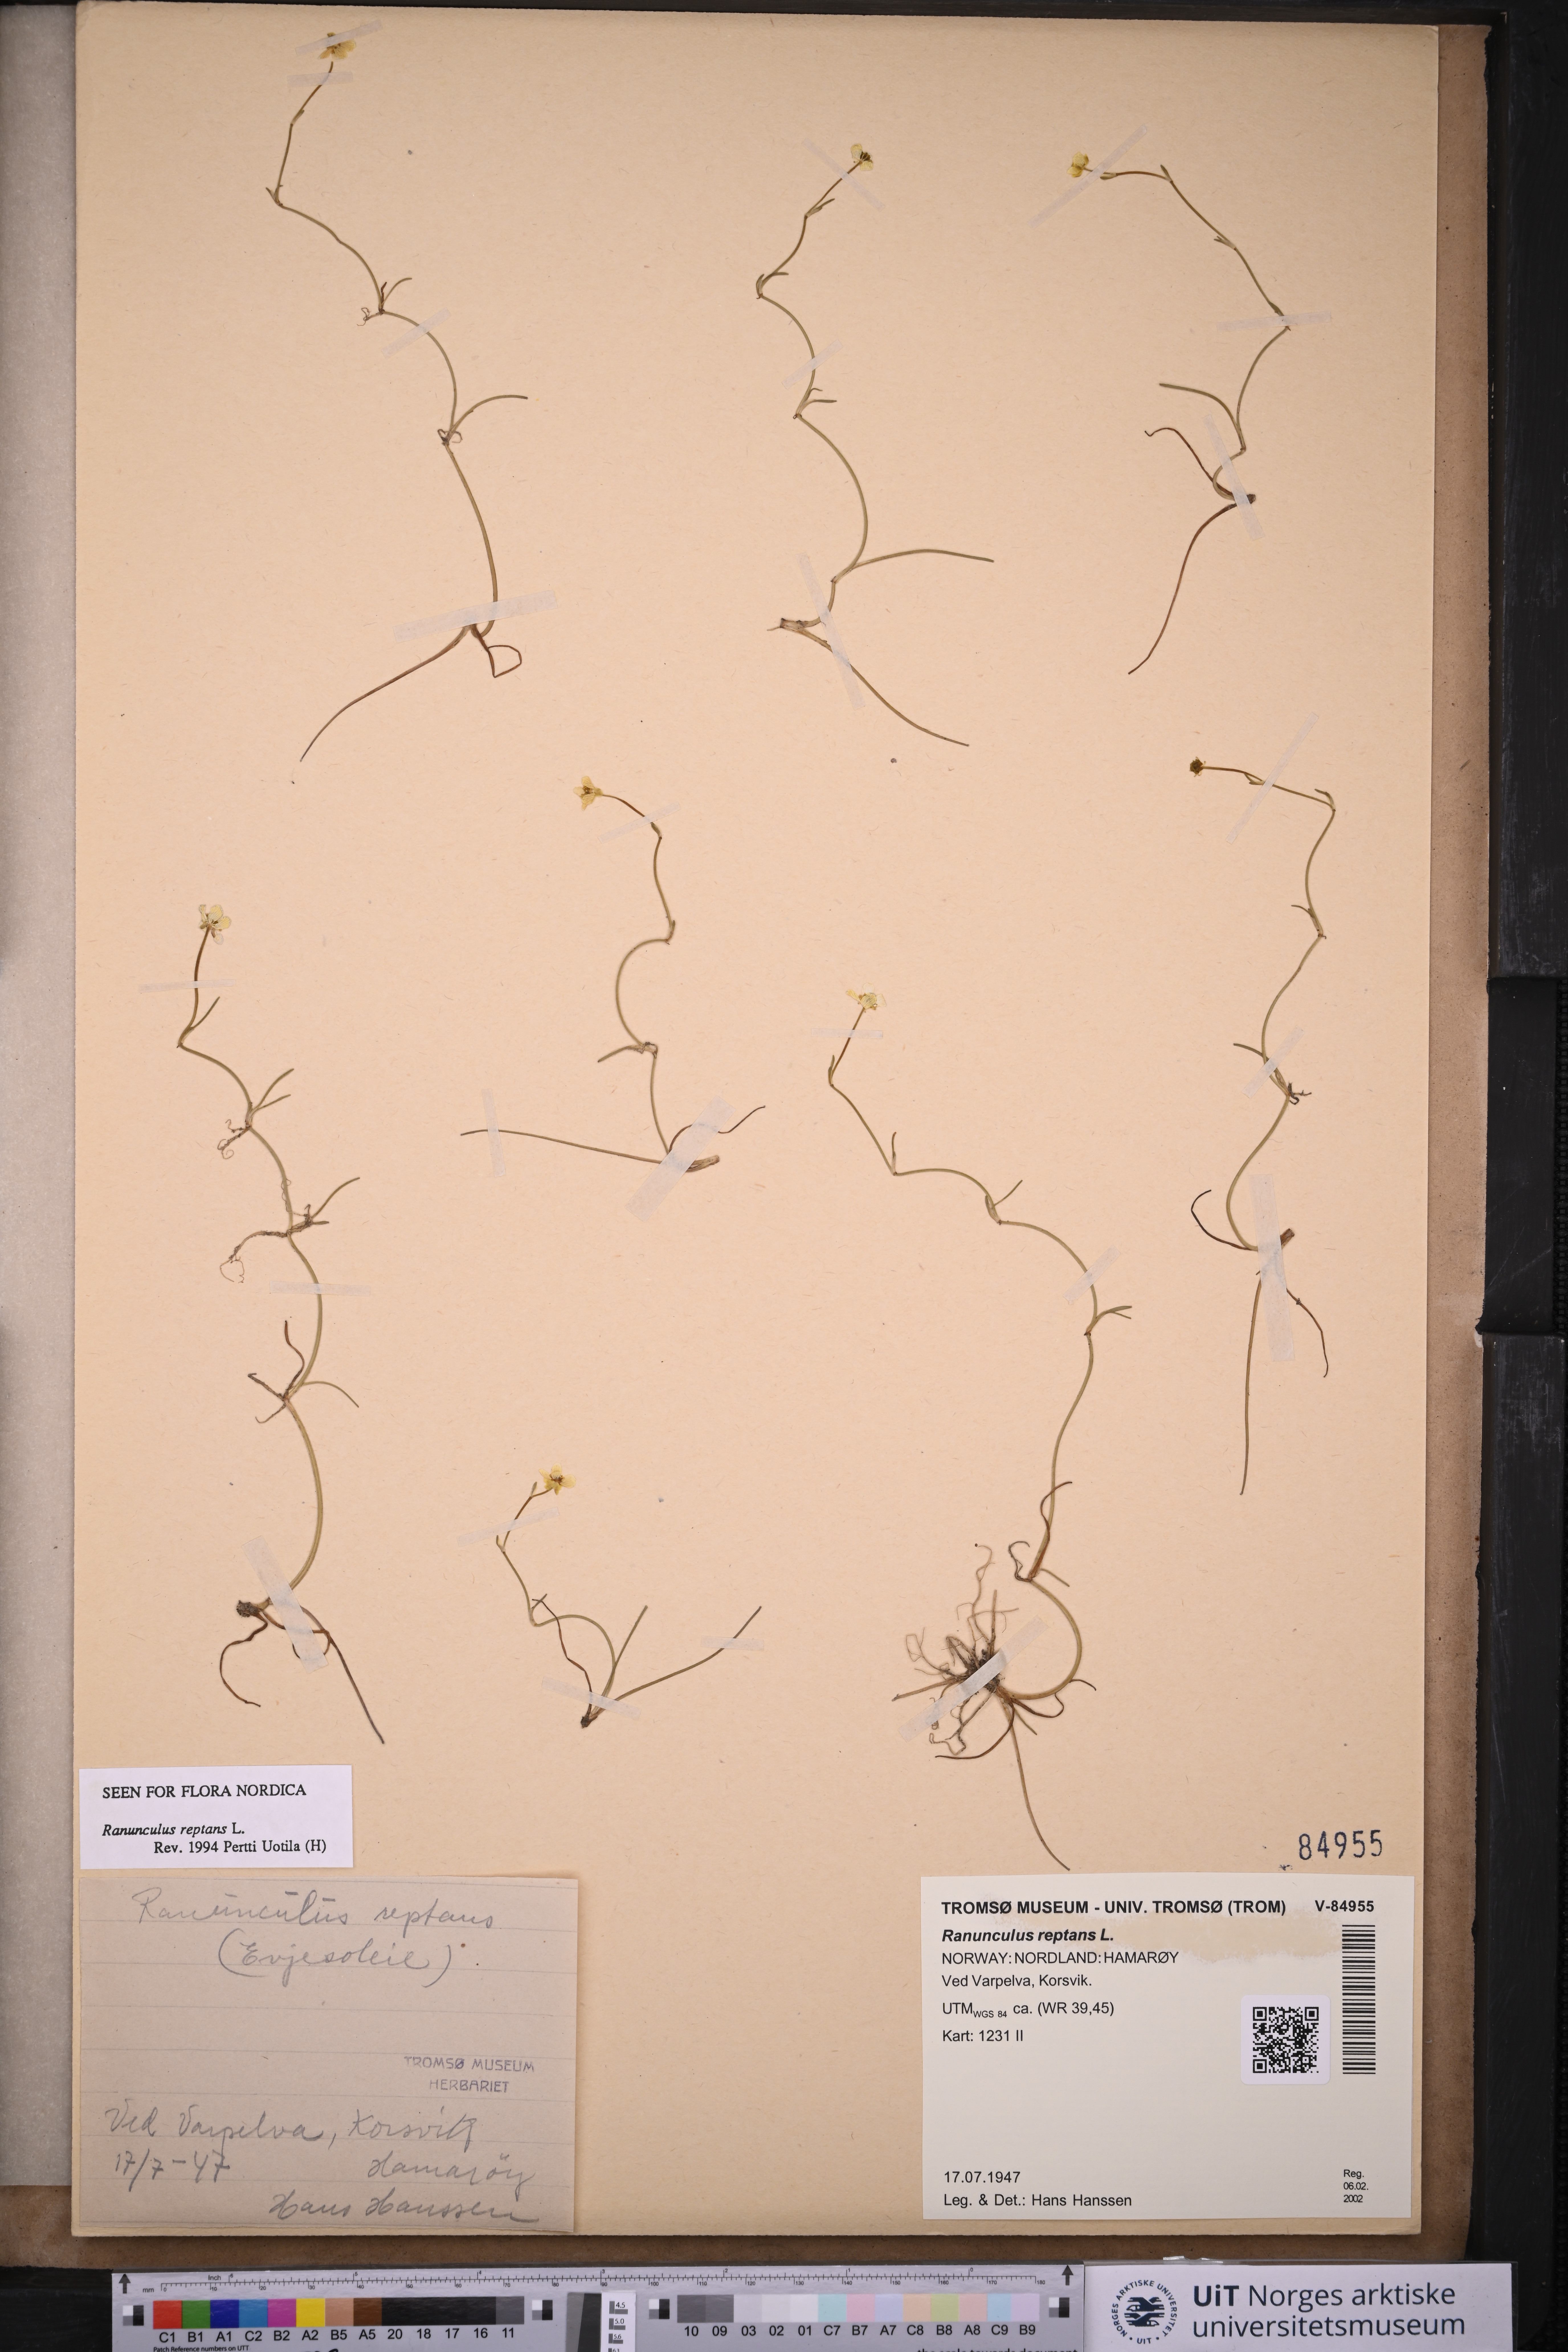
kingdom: Plantae
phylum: Tracheophyta
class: Magnoliopsida
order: Ranunculales
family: Ranunculaceae
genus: Ranunculus
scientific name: Ranunculus reptans
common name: Creeping spearwort
